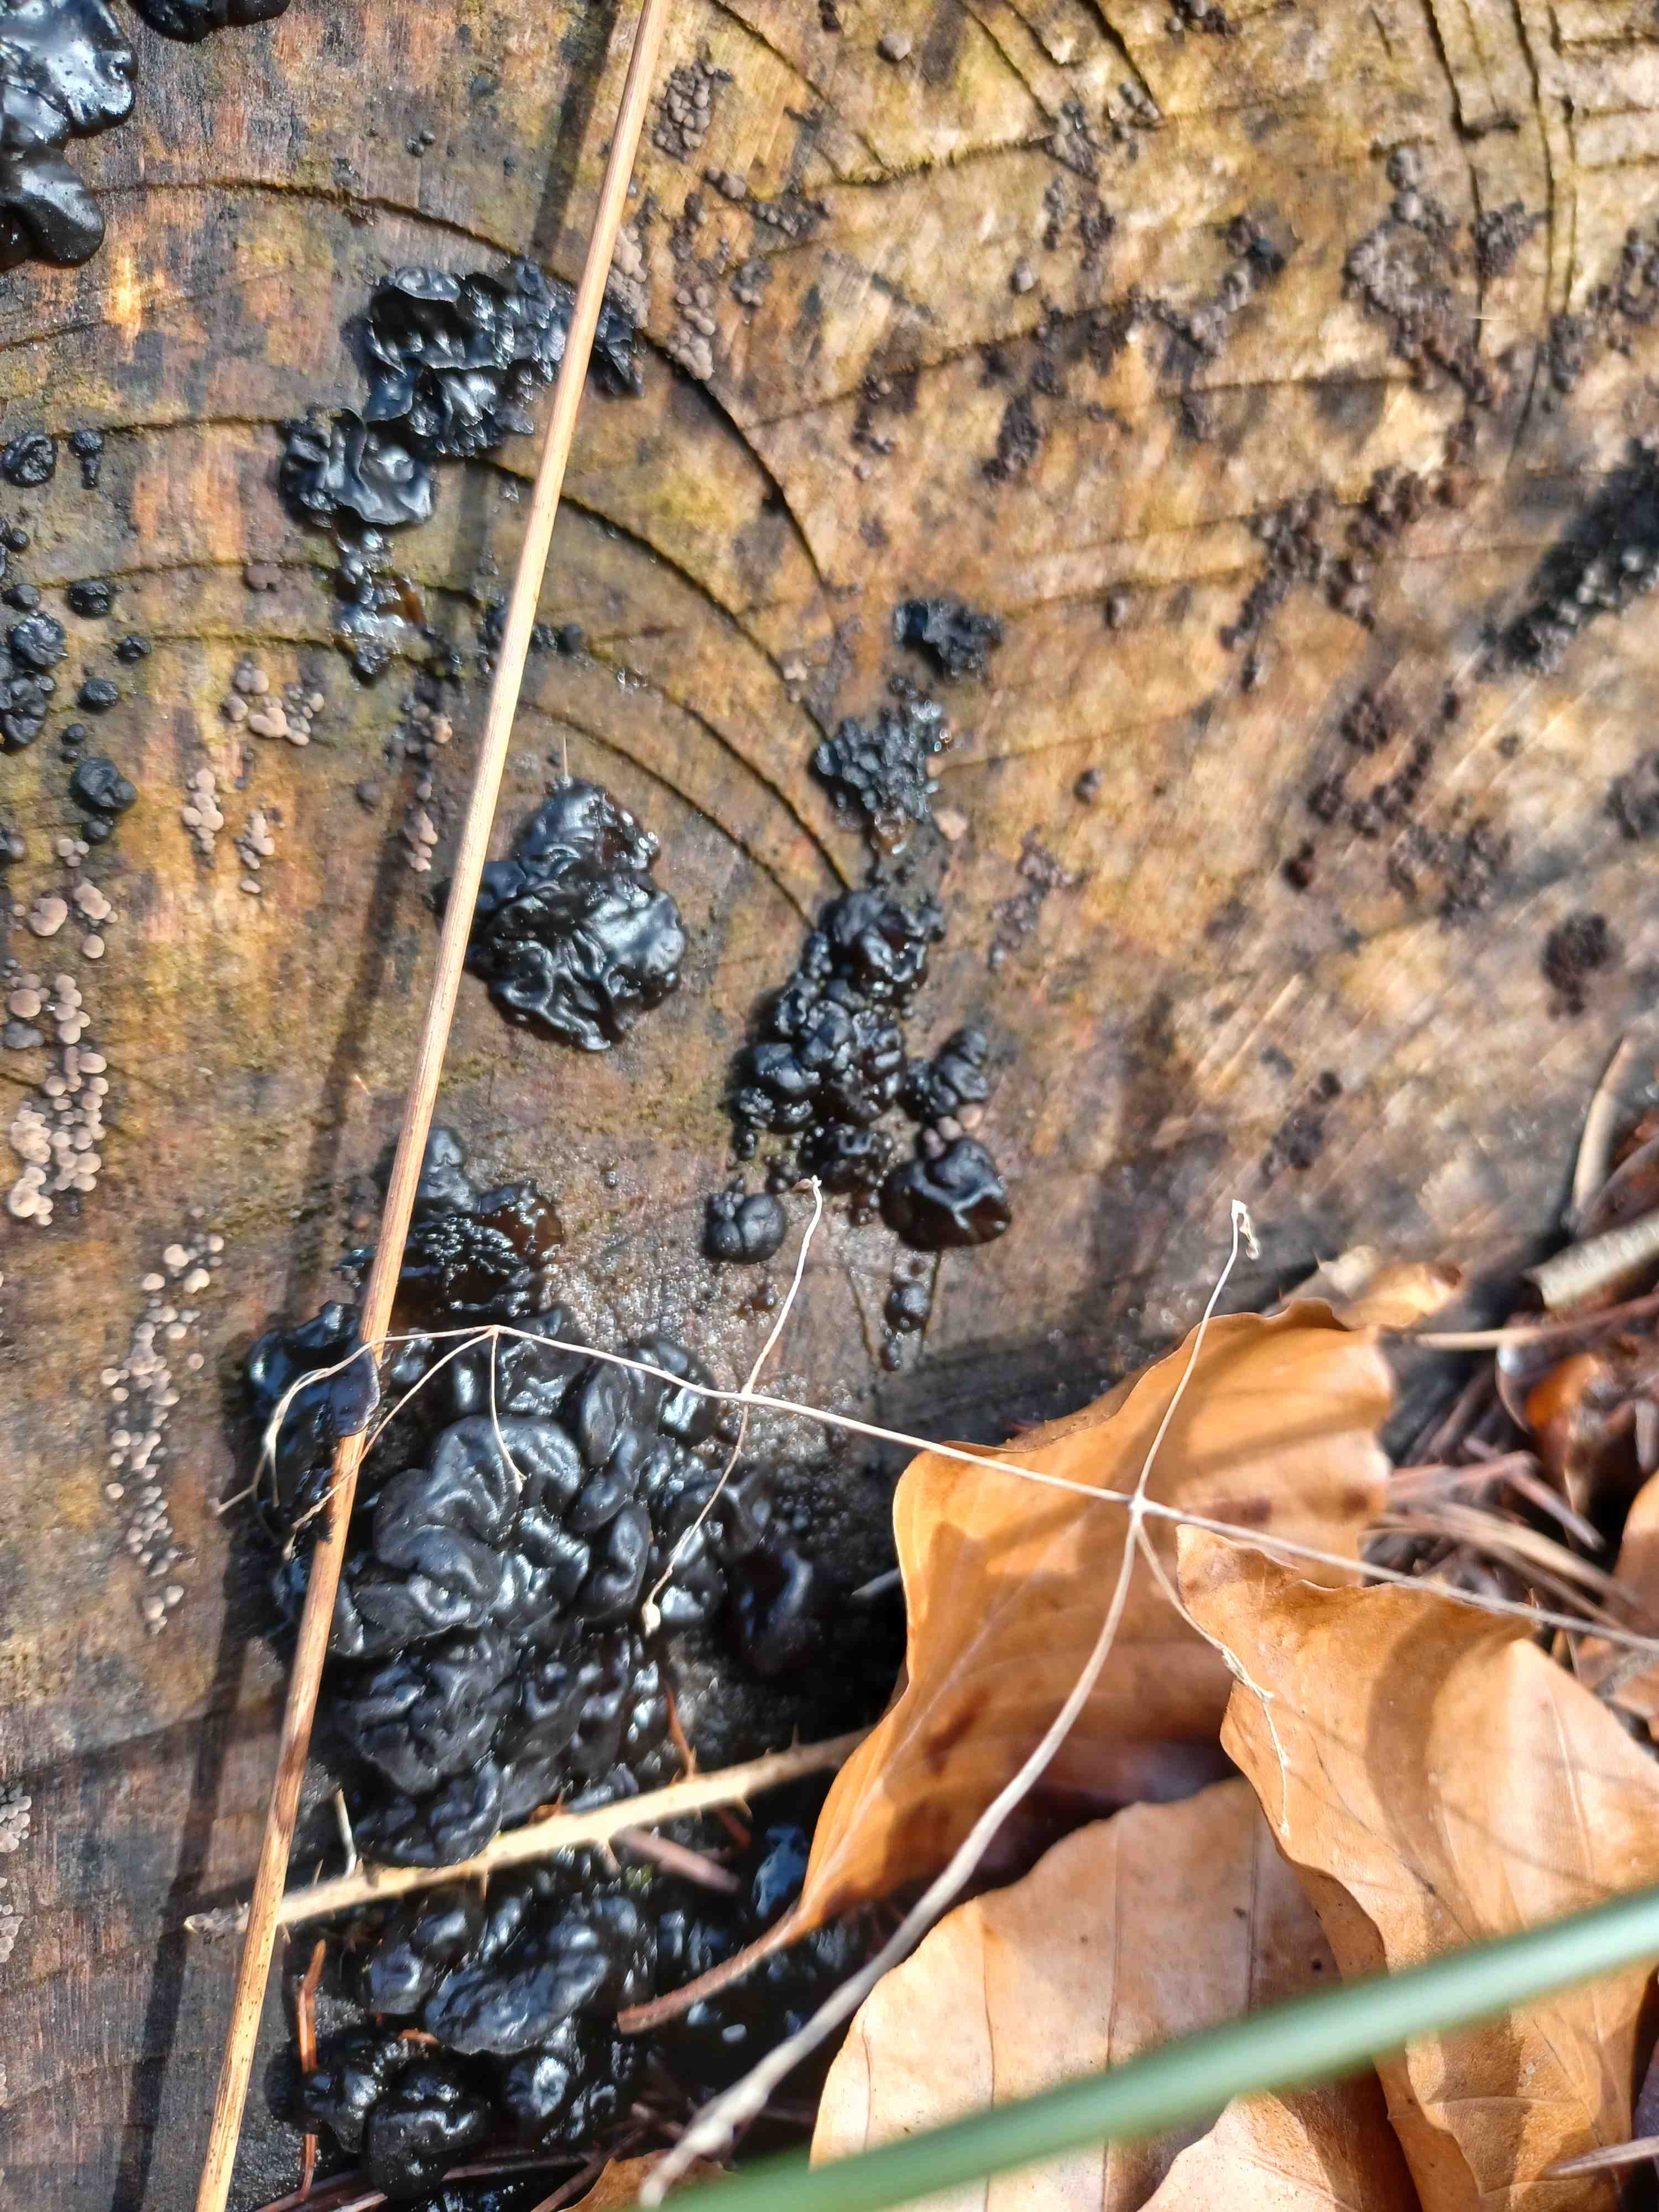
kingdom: Fungi
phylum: Basidiomycota
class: Agaricomycetes
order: Auriculariales
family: Auriculariaceae
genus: Exidia
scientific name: Exidia nigricans
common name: almindelig bævretop
